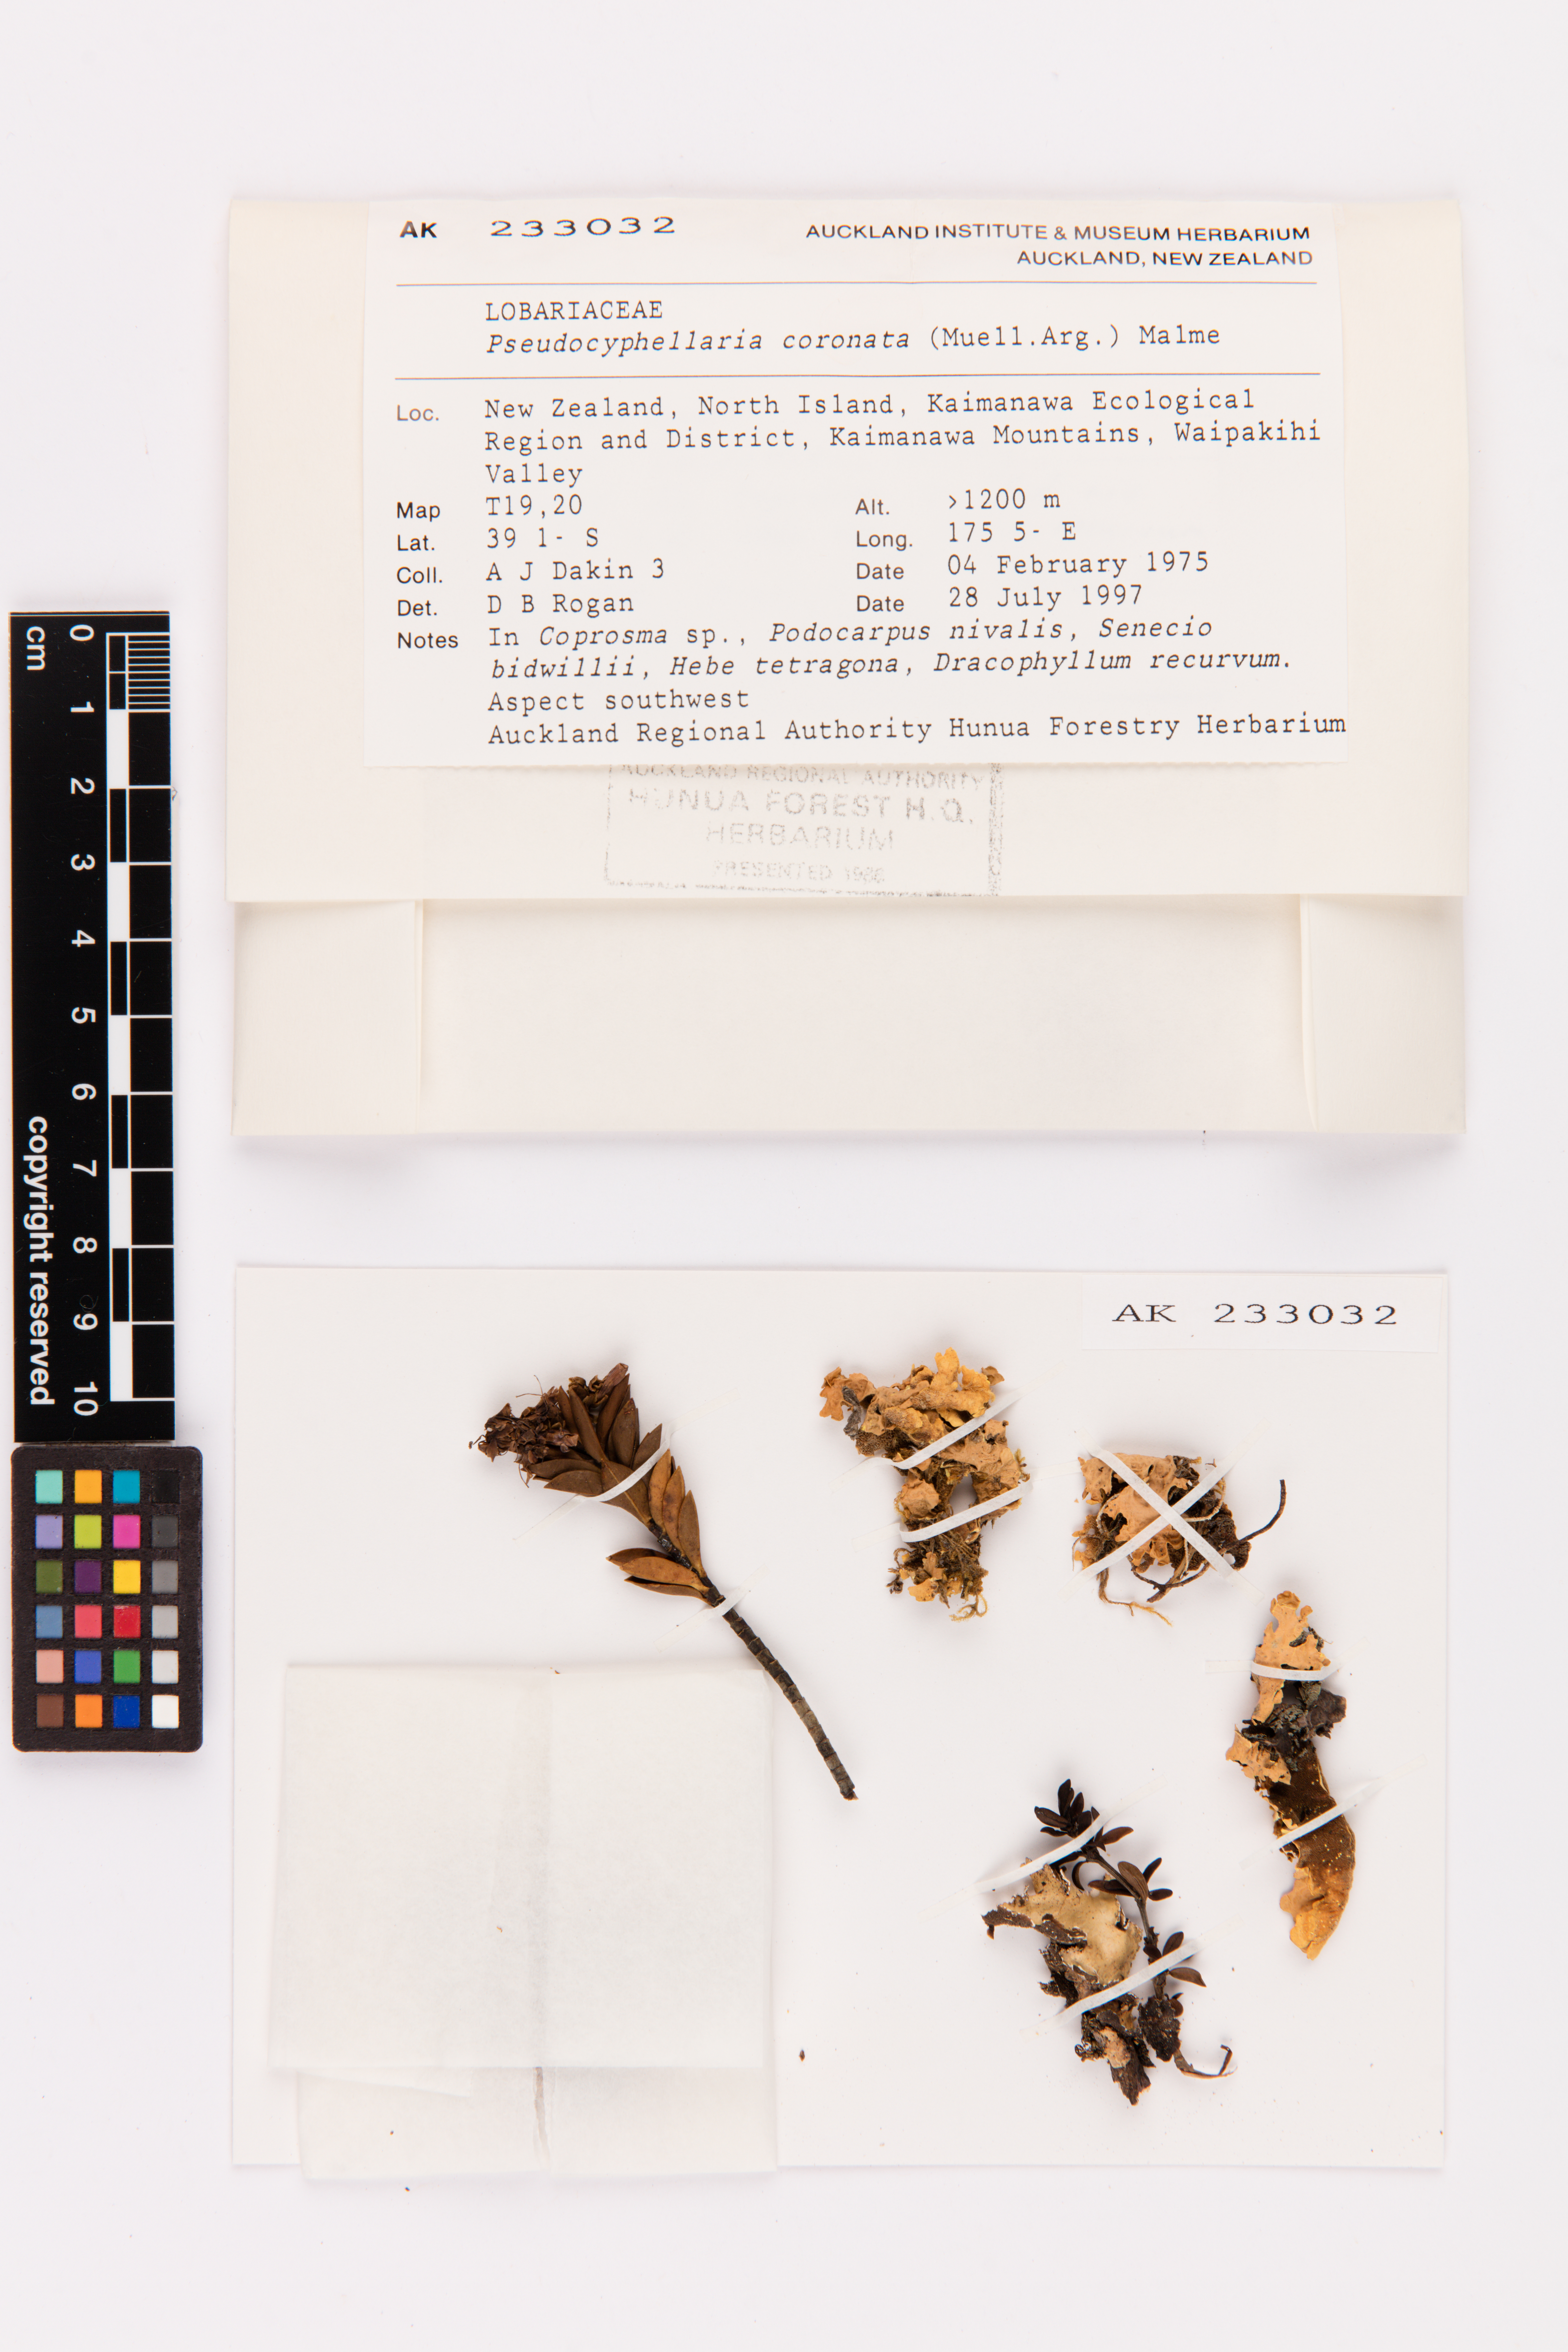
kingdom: Fungi
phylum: Ascomycota
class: Lecanoromycetes
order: Peltigerales
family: Lobariaceae
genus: Yarrumia
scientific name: Yarrumia coronata
